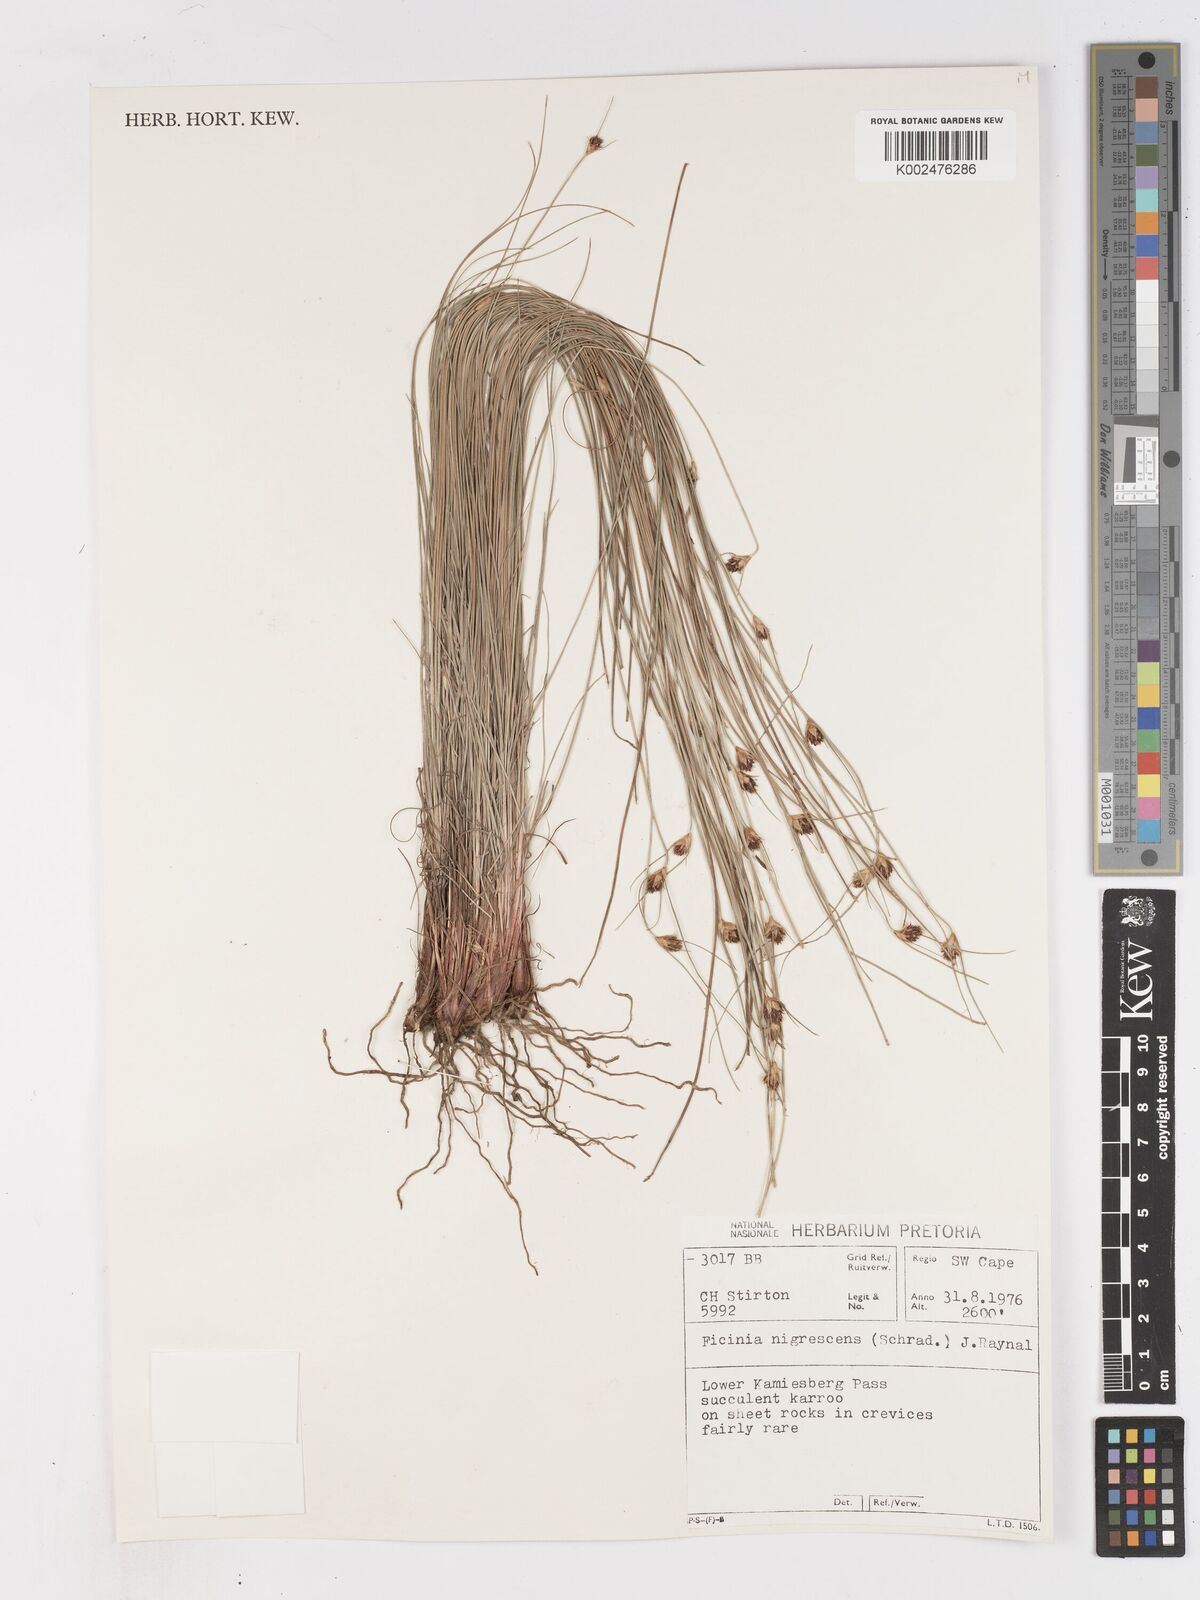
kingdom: Plantae
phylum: Tracheophyta
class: Liliopsida
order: Poales
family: Cyperaceae
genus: Ficinia
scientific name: Ficinia nigrescens
